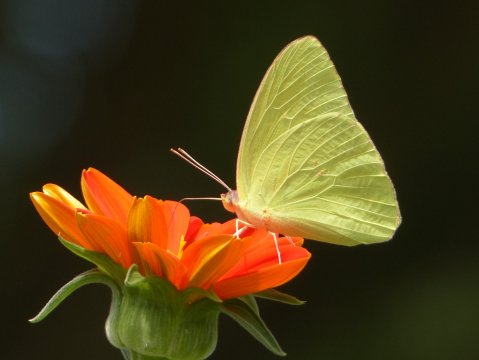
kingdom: Animalia
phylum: Arthropoda
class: Insecta
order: Lepidoptera
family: Pieridae
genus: Zerene
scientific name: Zerene cesonia
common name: Southern Dogface
